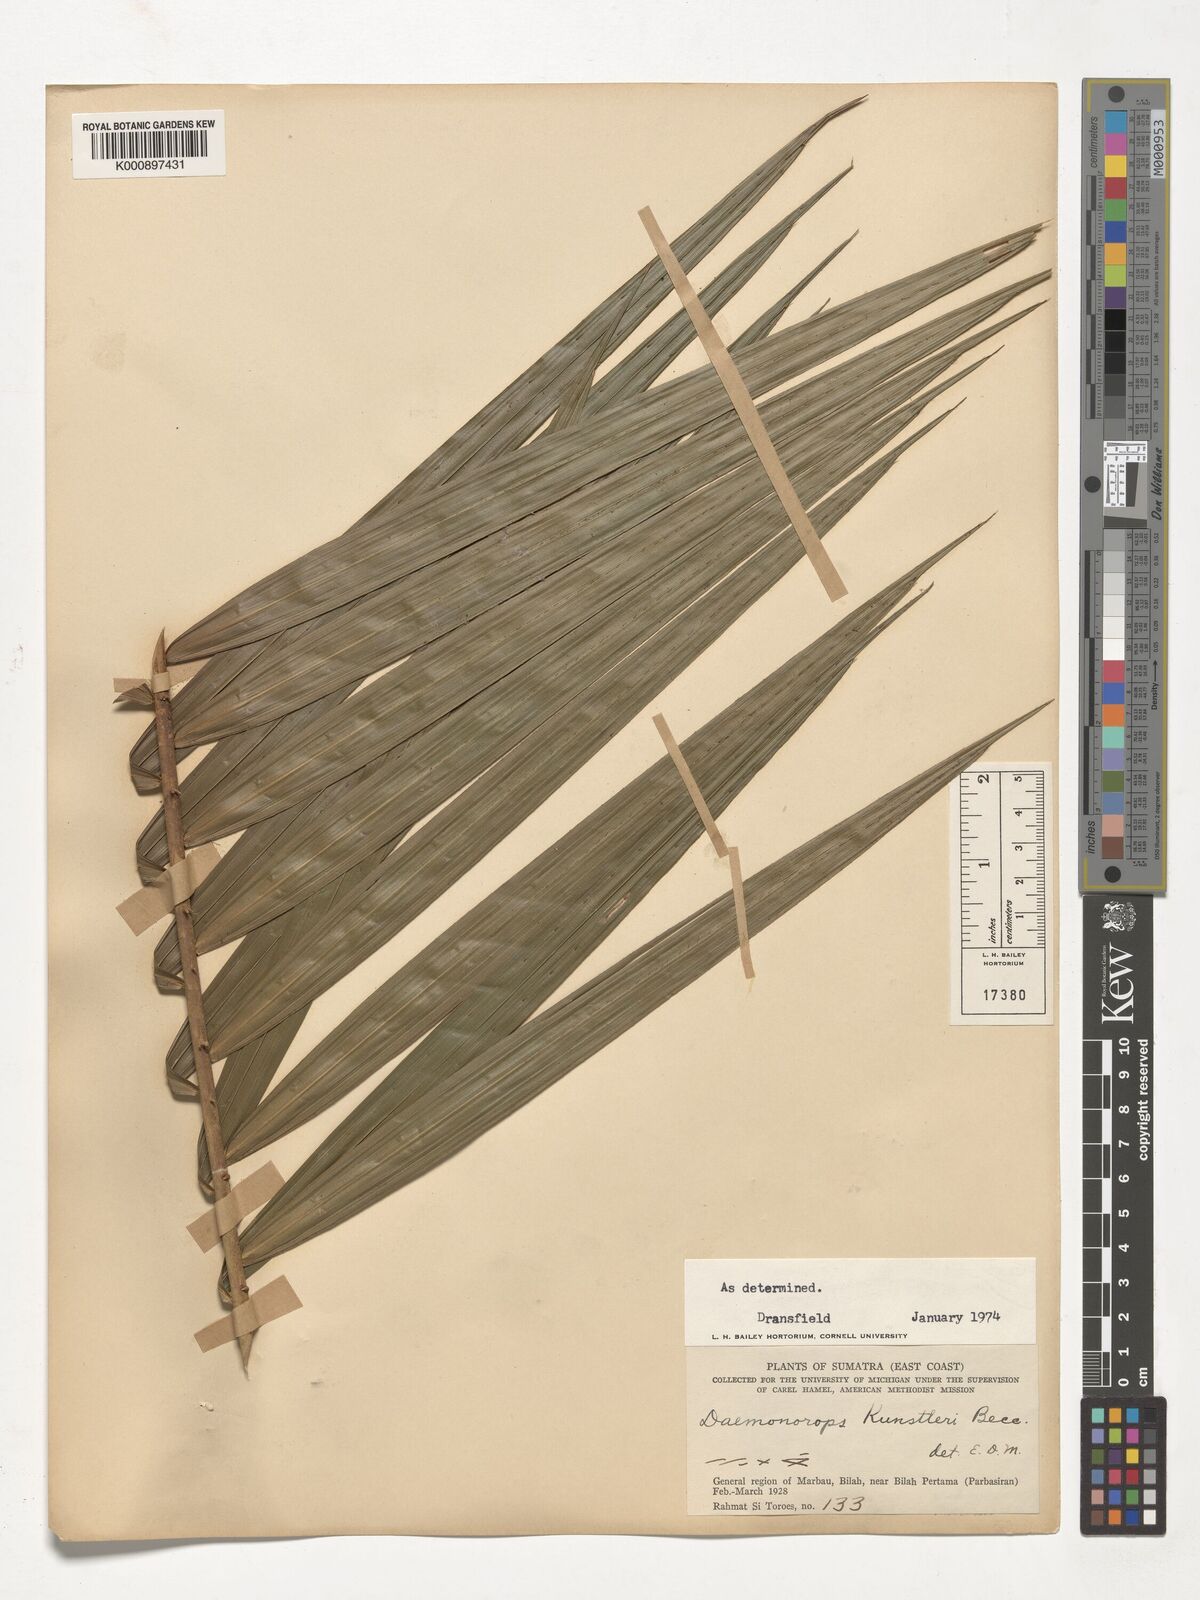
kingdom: Plantae
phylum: Tracheophyta
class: Liliopsida
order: Arecales
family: Arecaceae
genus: Calamus
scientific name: Calamus kunstleri
